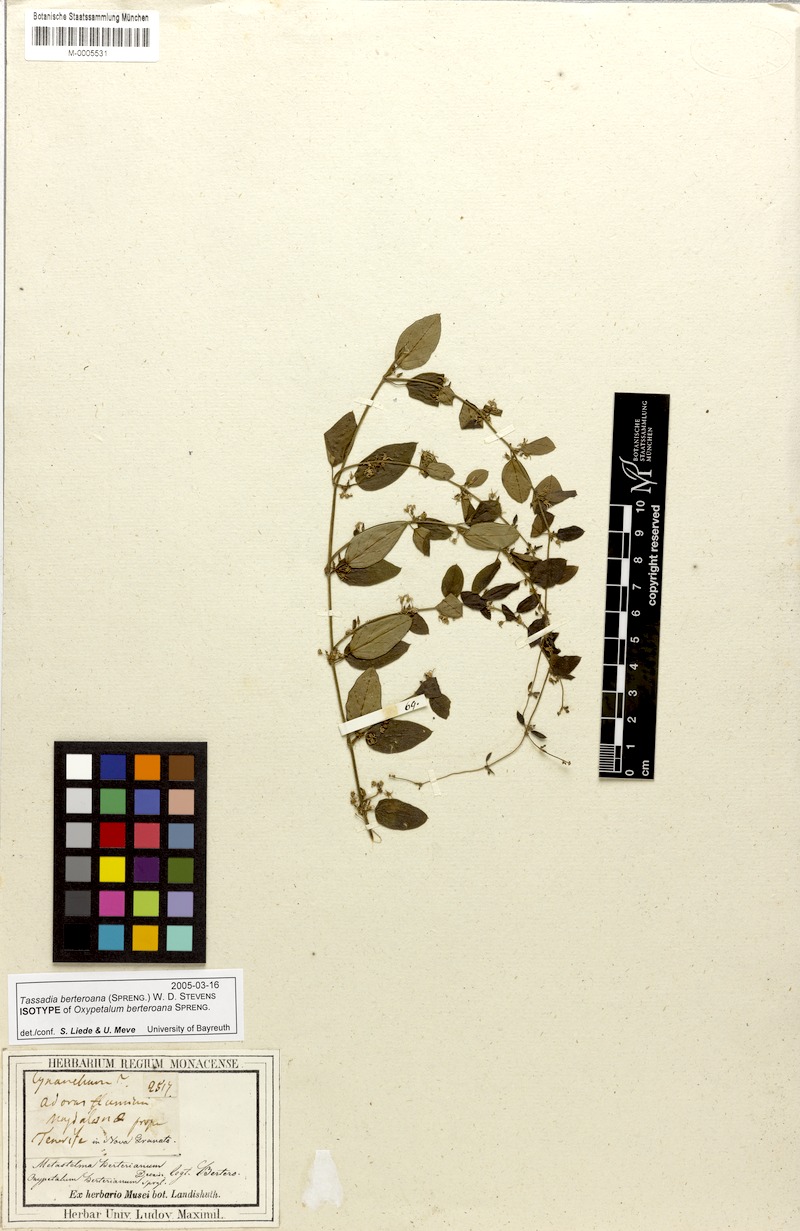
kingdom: Plantae
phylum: Tracheophyta
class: Magnoliopsida
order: Gentianales
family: Apocynaceae
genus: Tassadia
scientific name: Tassadia berteroana
